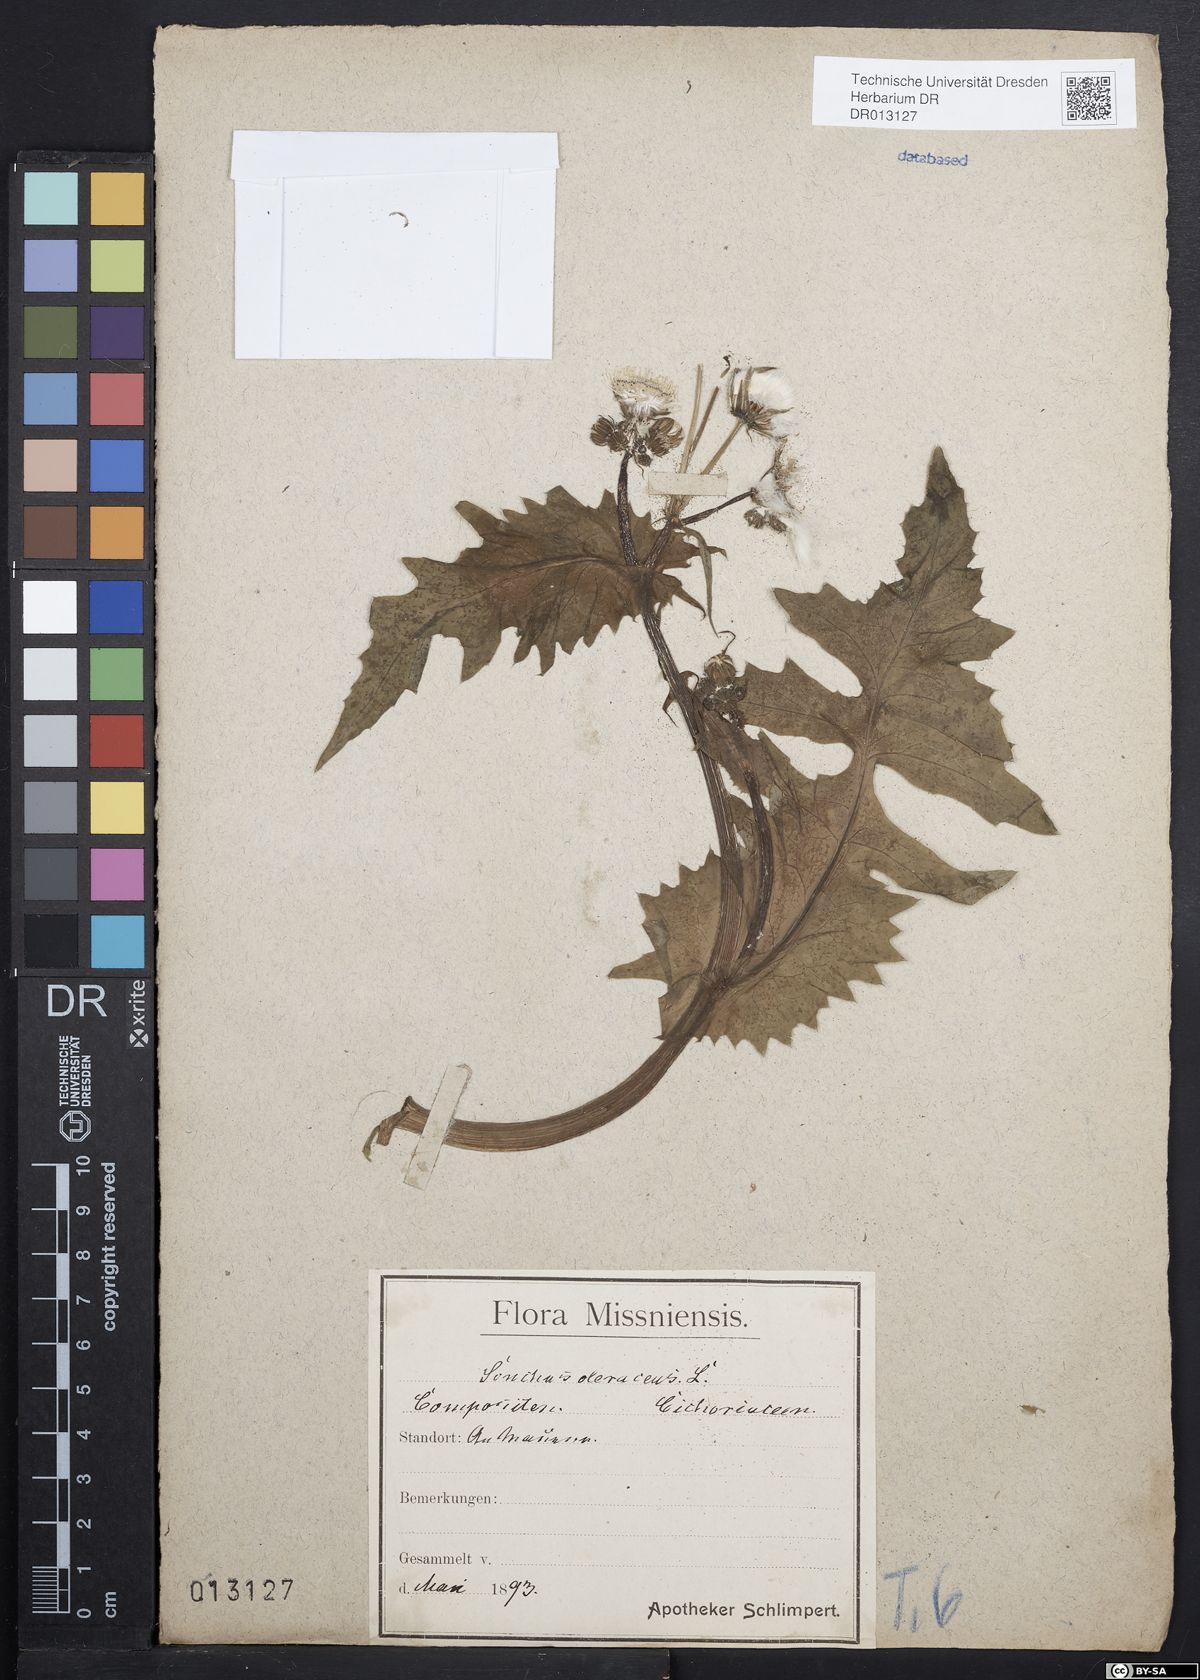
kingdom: Plantae
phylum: Tracheophyta
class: Magnoliopsida
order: Asterales
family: Asteraceae
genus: Sonchus
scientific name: Sonchus oleraceus
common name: Common sowthistle
